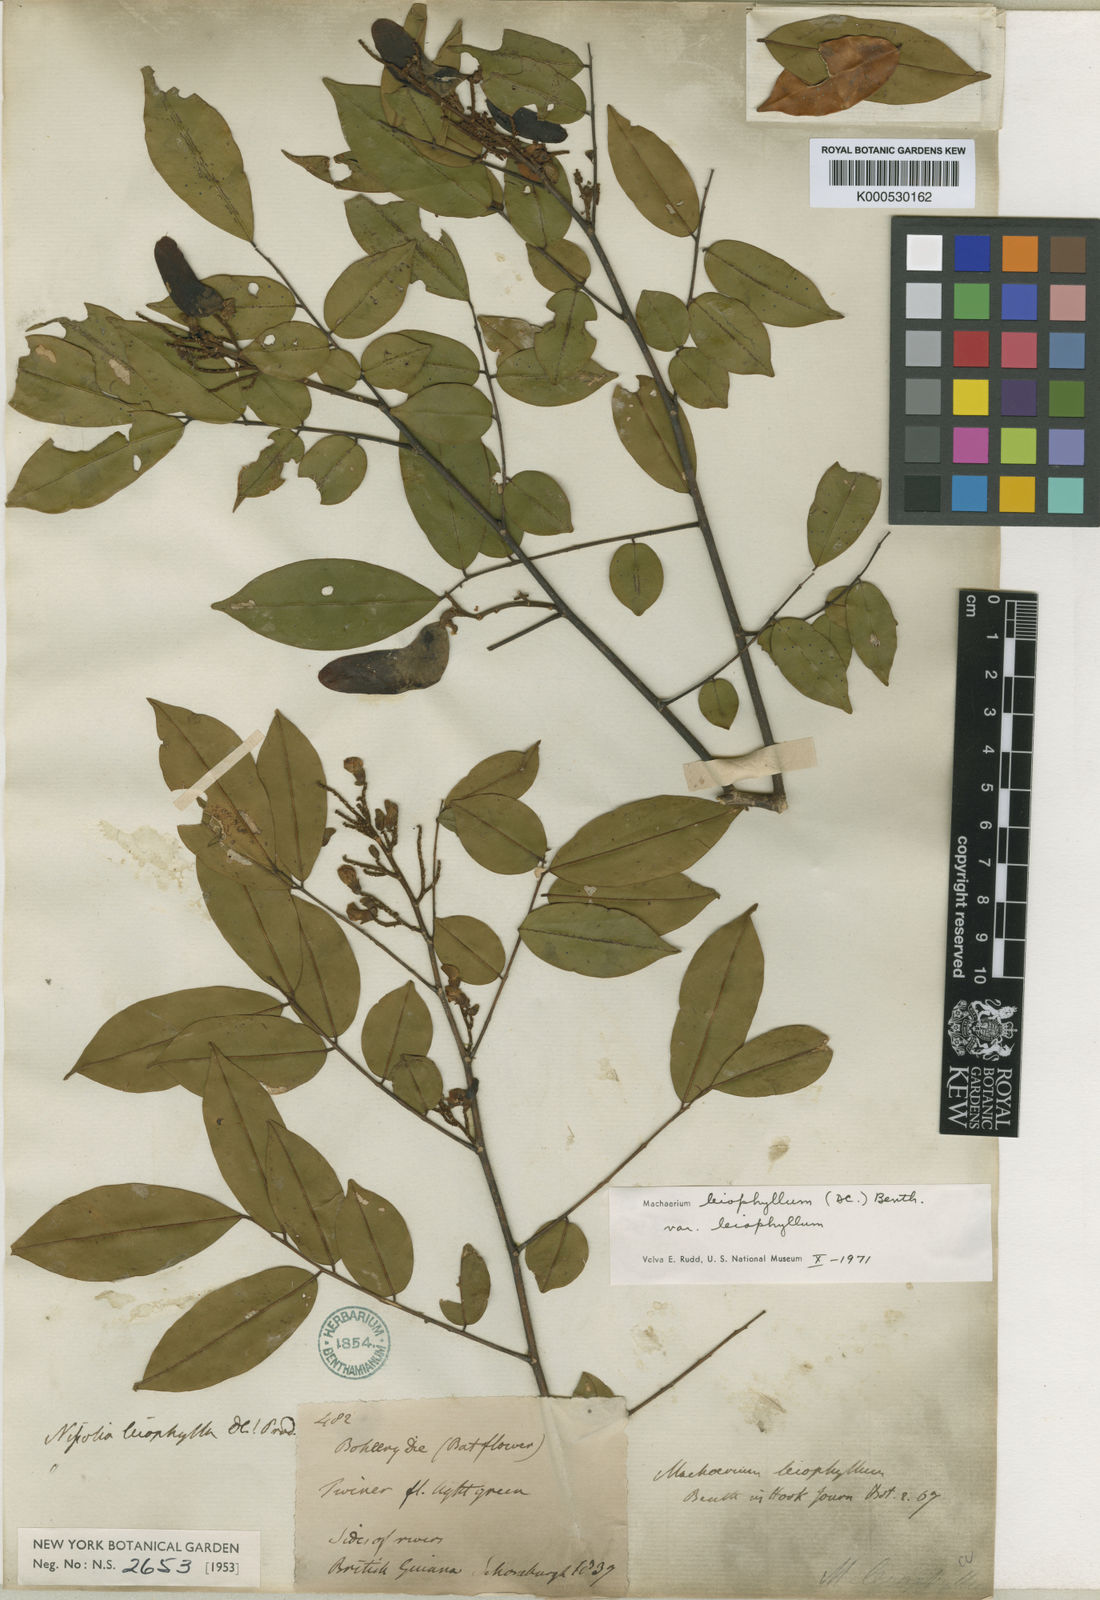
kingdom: Plantae
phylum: Tracheophyta
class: Magnoliopsida
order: Fabales
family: Fabaceae
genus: Machaerium
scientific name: Machaerium leiophyllum
